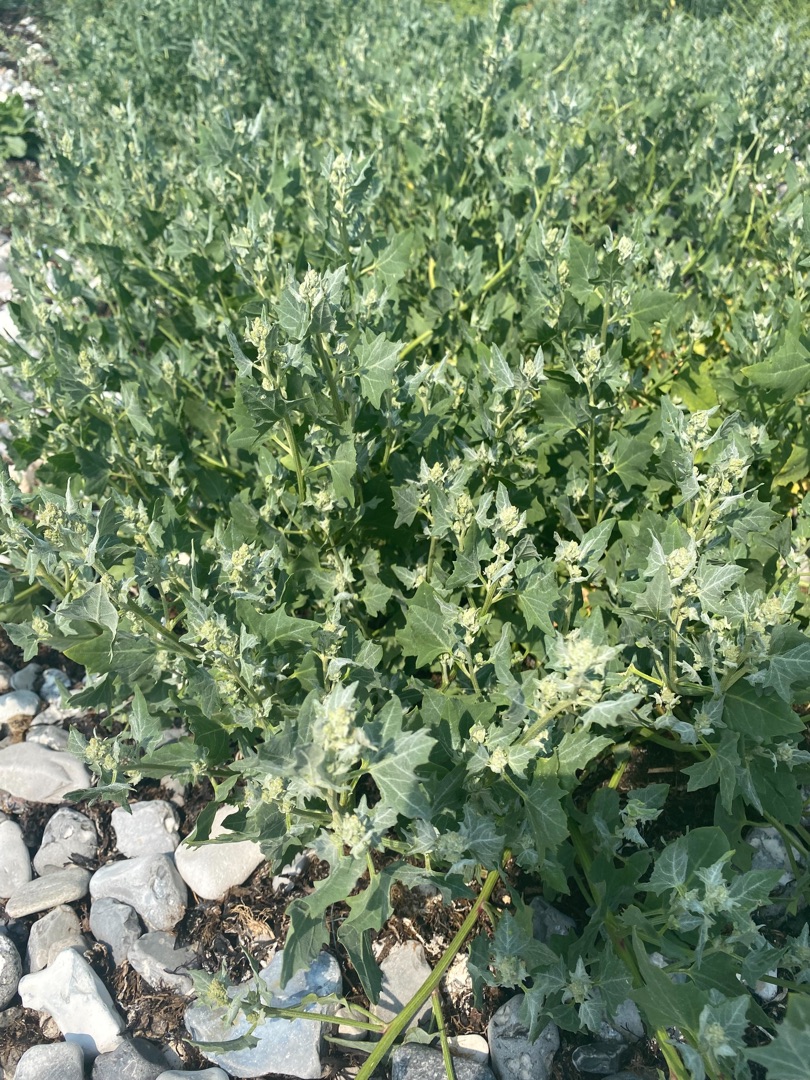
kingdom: Plantae
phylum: Tracheophyta
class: Magnoliopsida
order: Caryophyllales
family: Amaranthaceae
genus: Atriplex
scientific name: Atriplex prostrata
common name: Spyd-mælde
